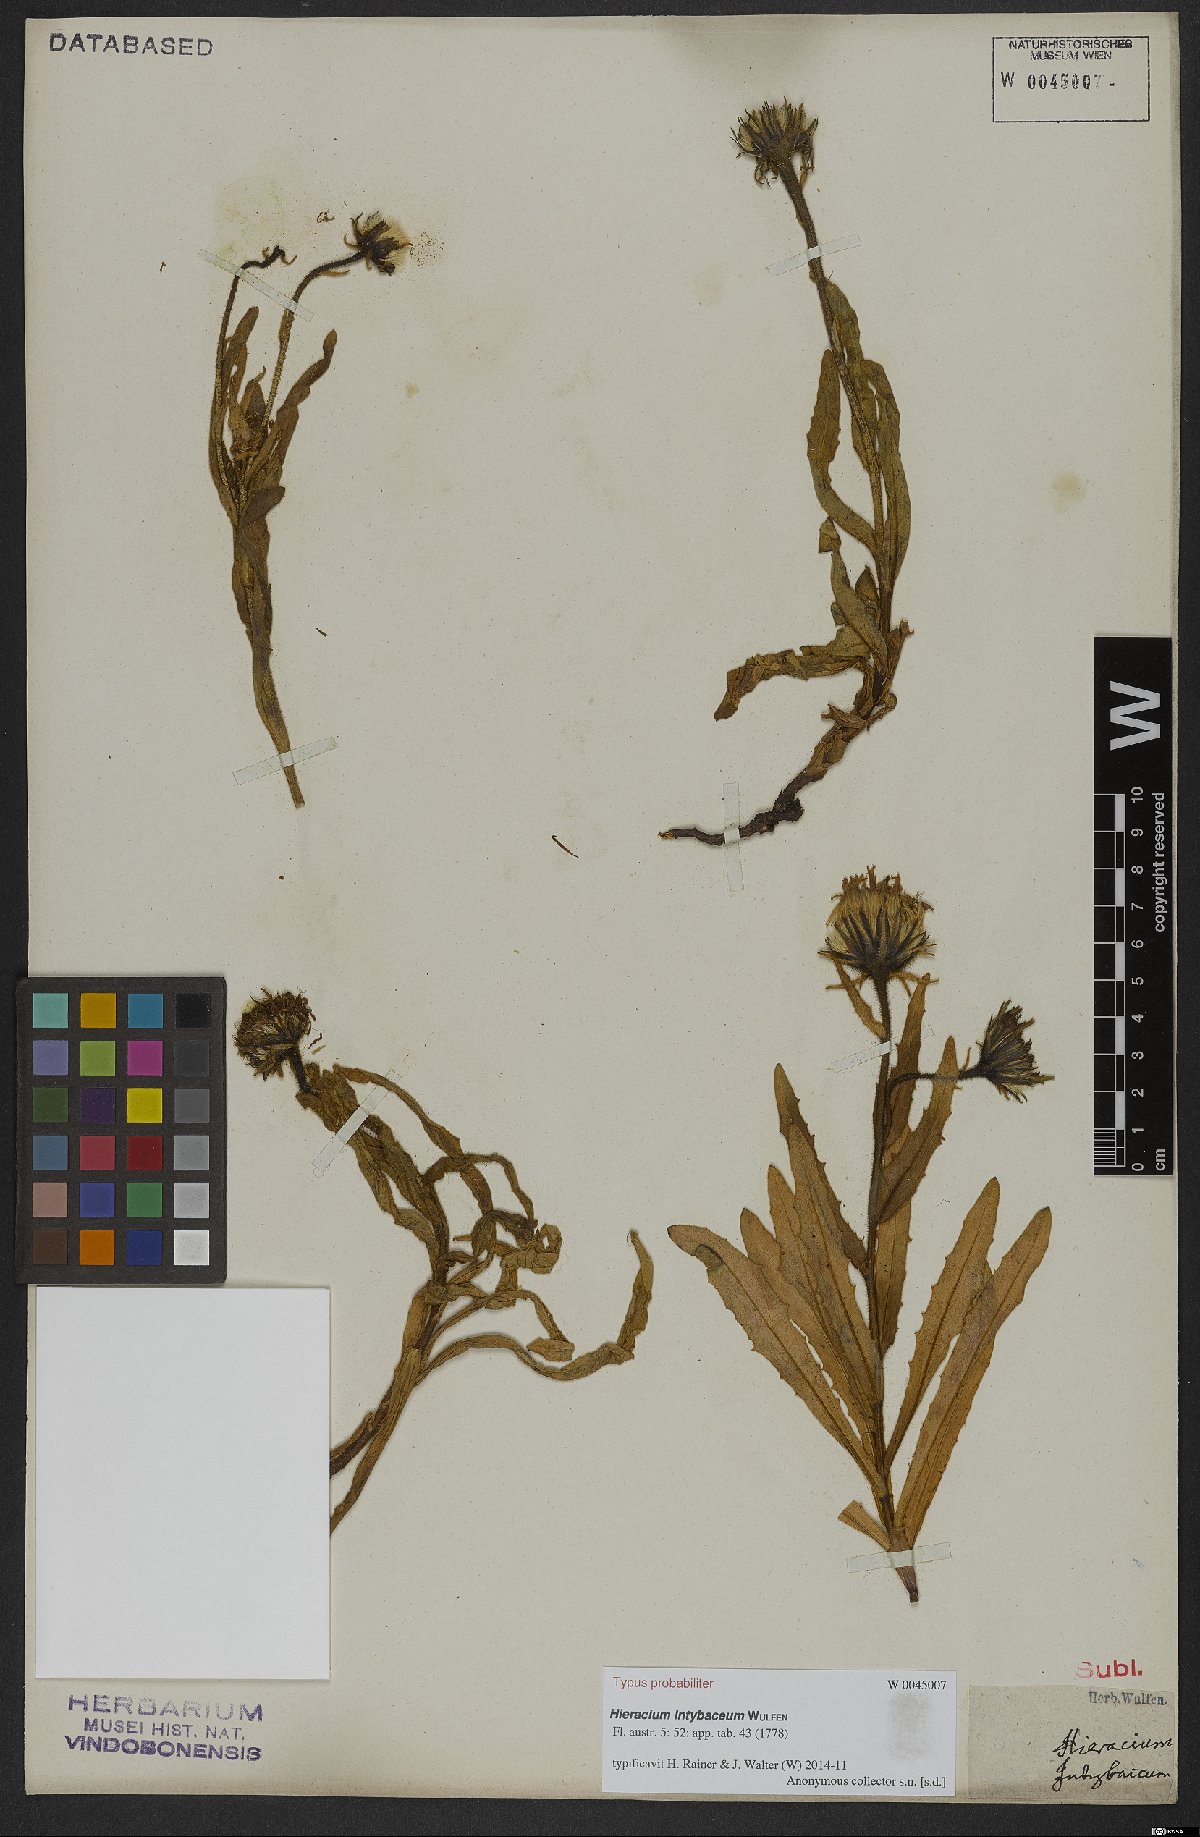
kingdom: Plantae
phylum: Tracheophyta
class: Magnoliopsida
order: Asterales
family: Asteraceae
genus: Schlagintweitia
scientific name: Schlagintweitia intybacea
